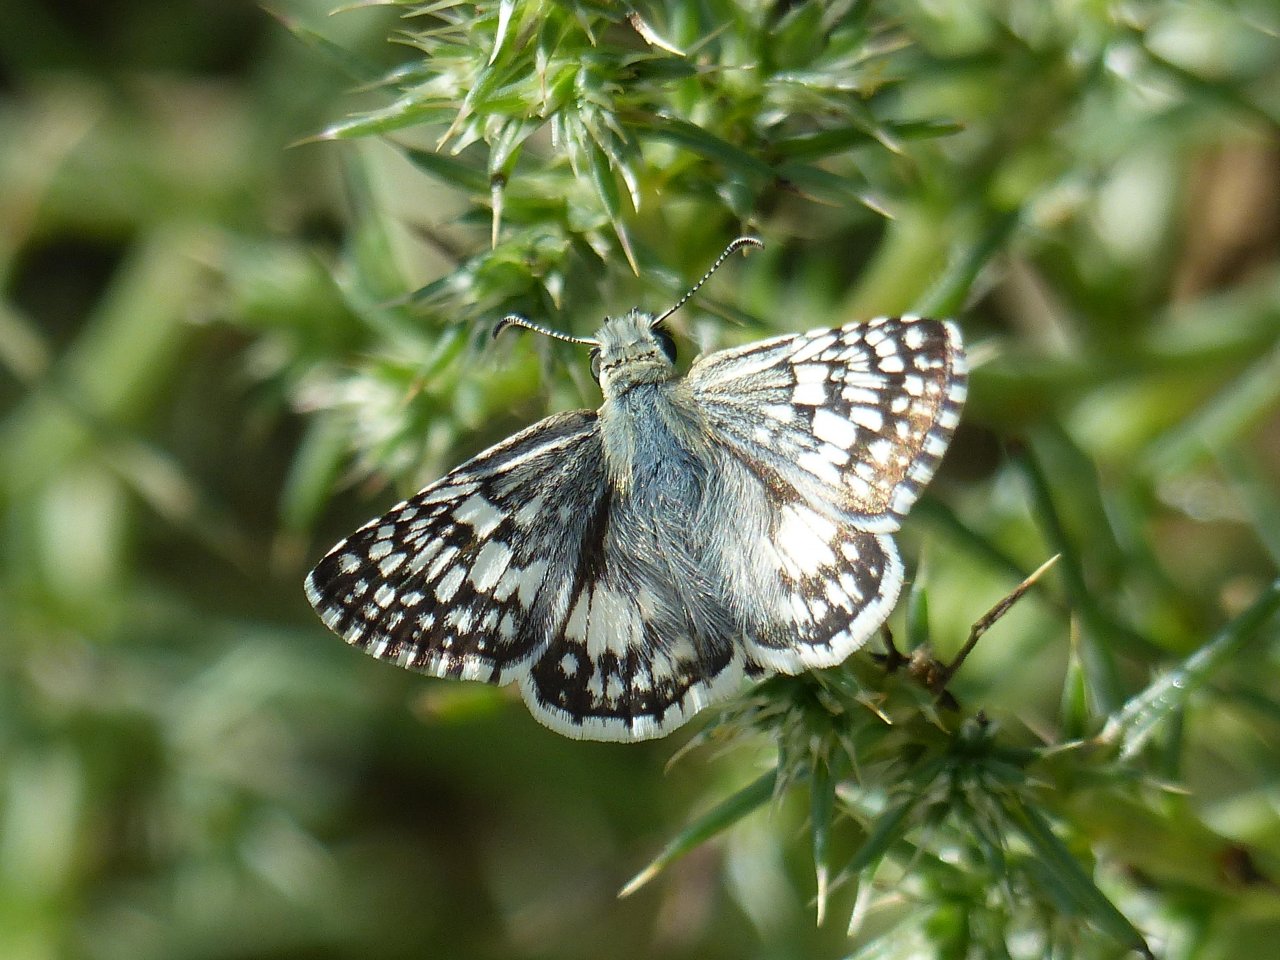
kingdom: Animalia
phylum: Arthropoda
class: Insecta
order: Lepidoptera
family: Hesperiidae
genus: Pyrgus
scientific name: Pyrgus communis
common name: White Checkered-Skipper
